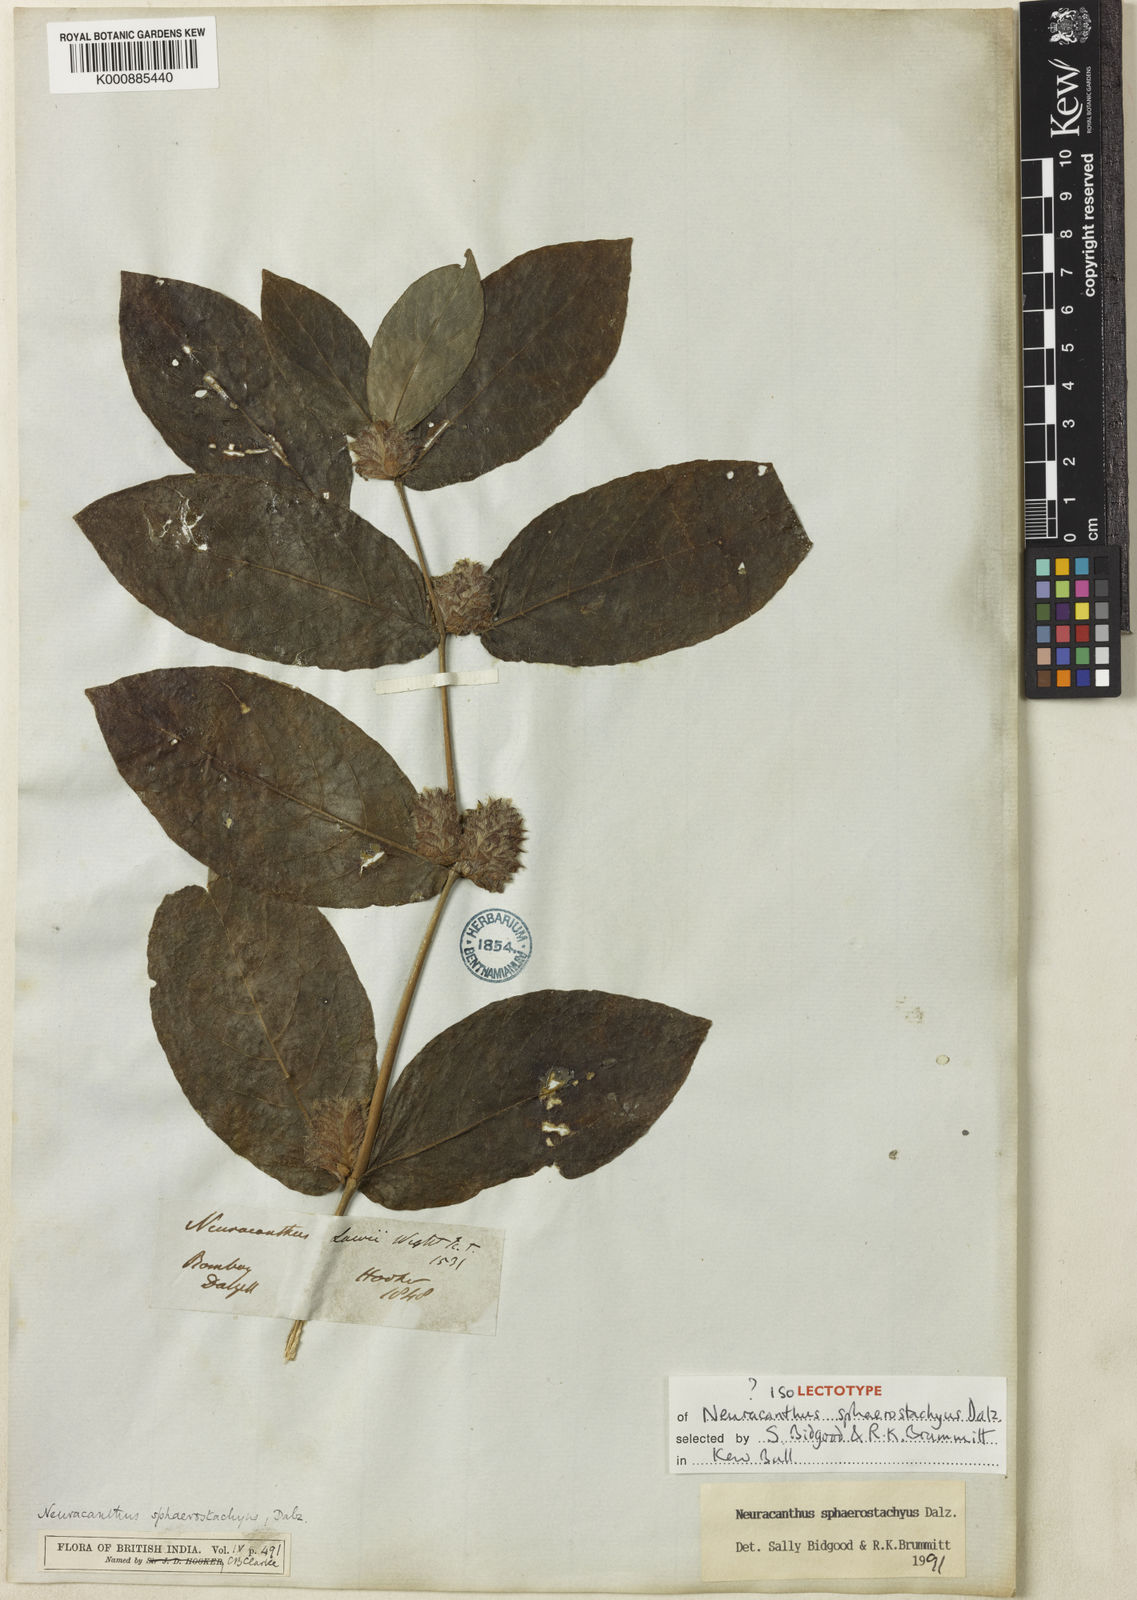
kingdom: Plantae
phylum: Tracheophyta
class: Magnoliopsida
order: Lamiales
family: Acanthaceae
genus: Neuracanthus
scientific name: Neuracanthus
